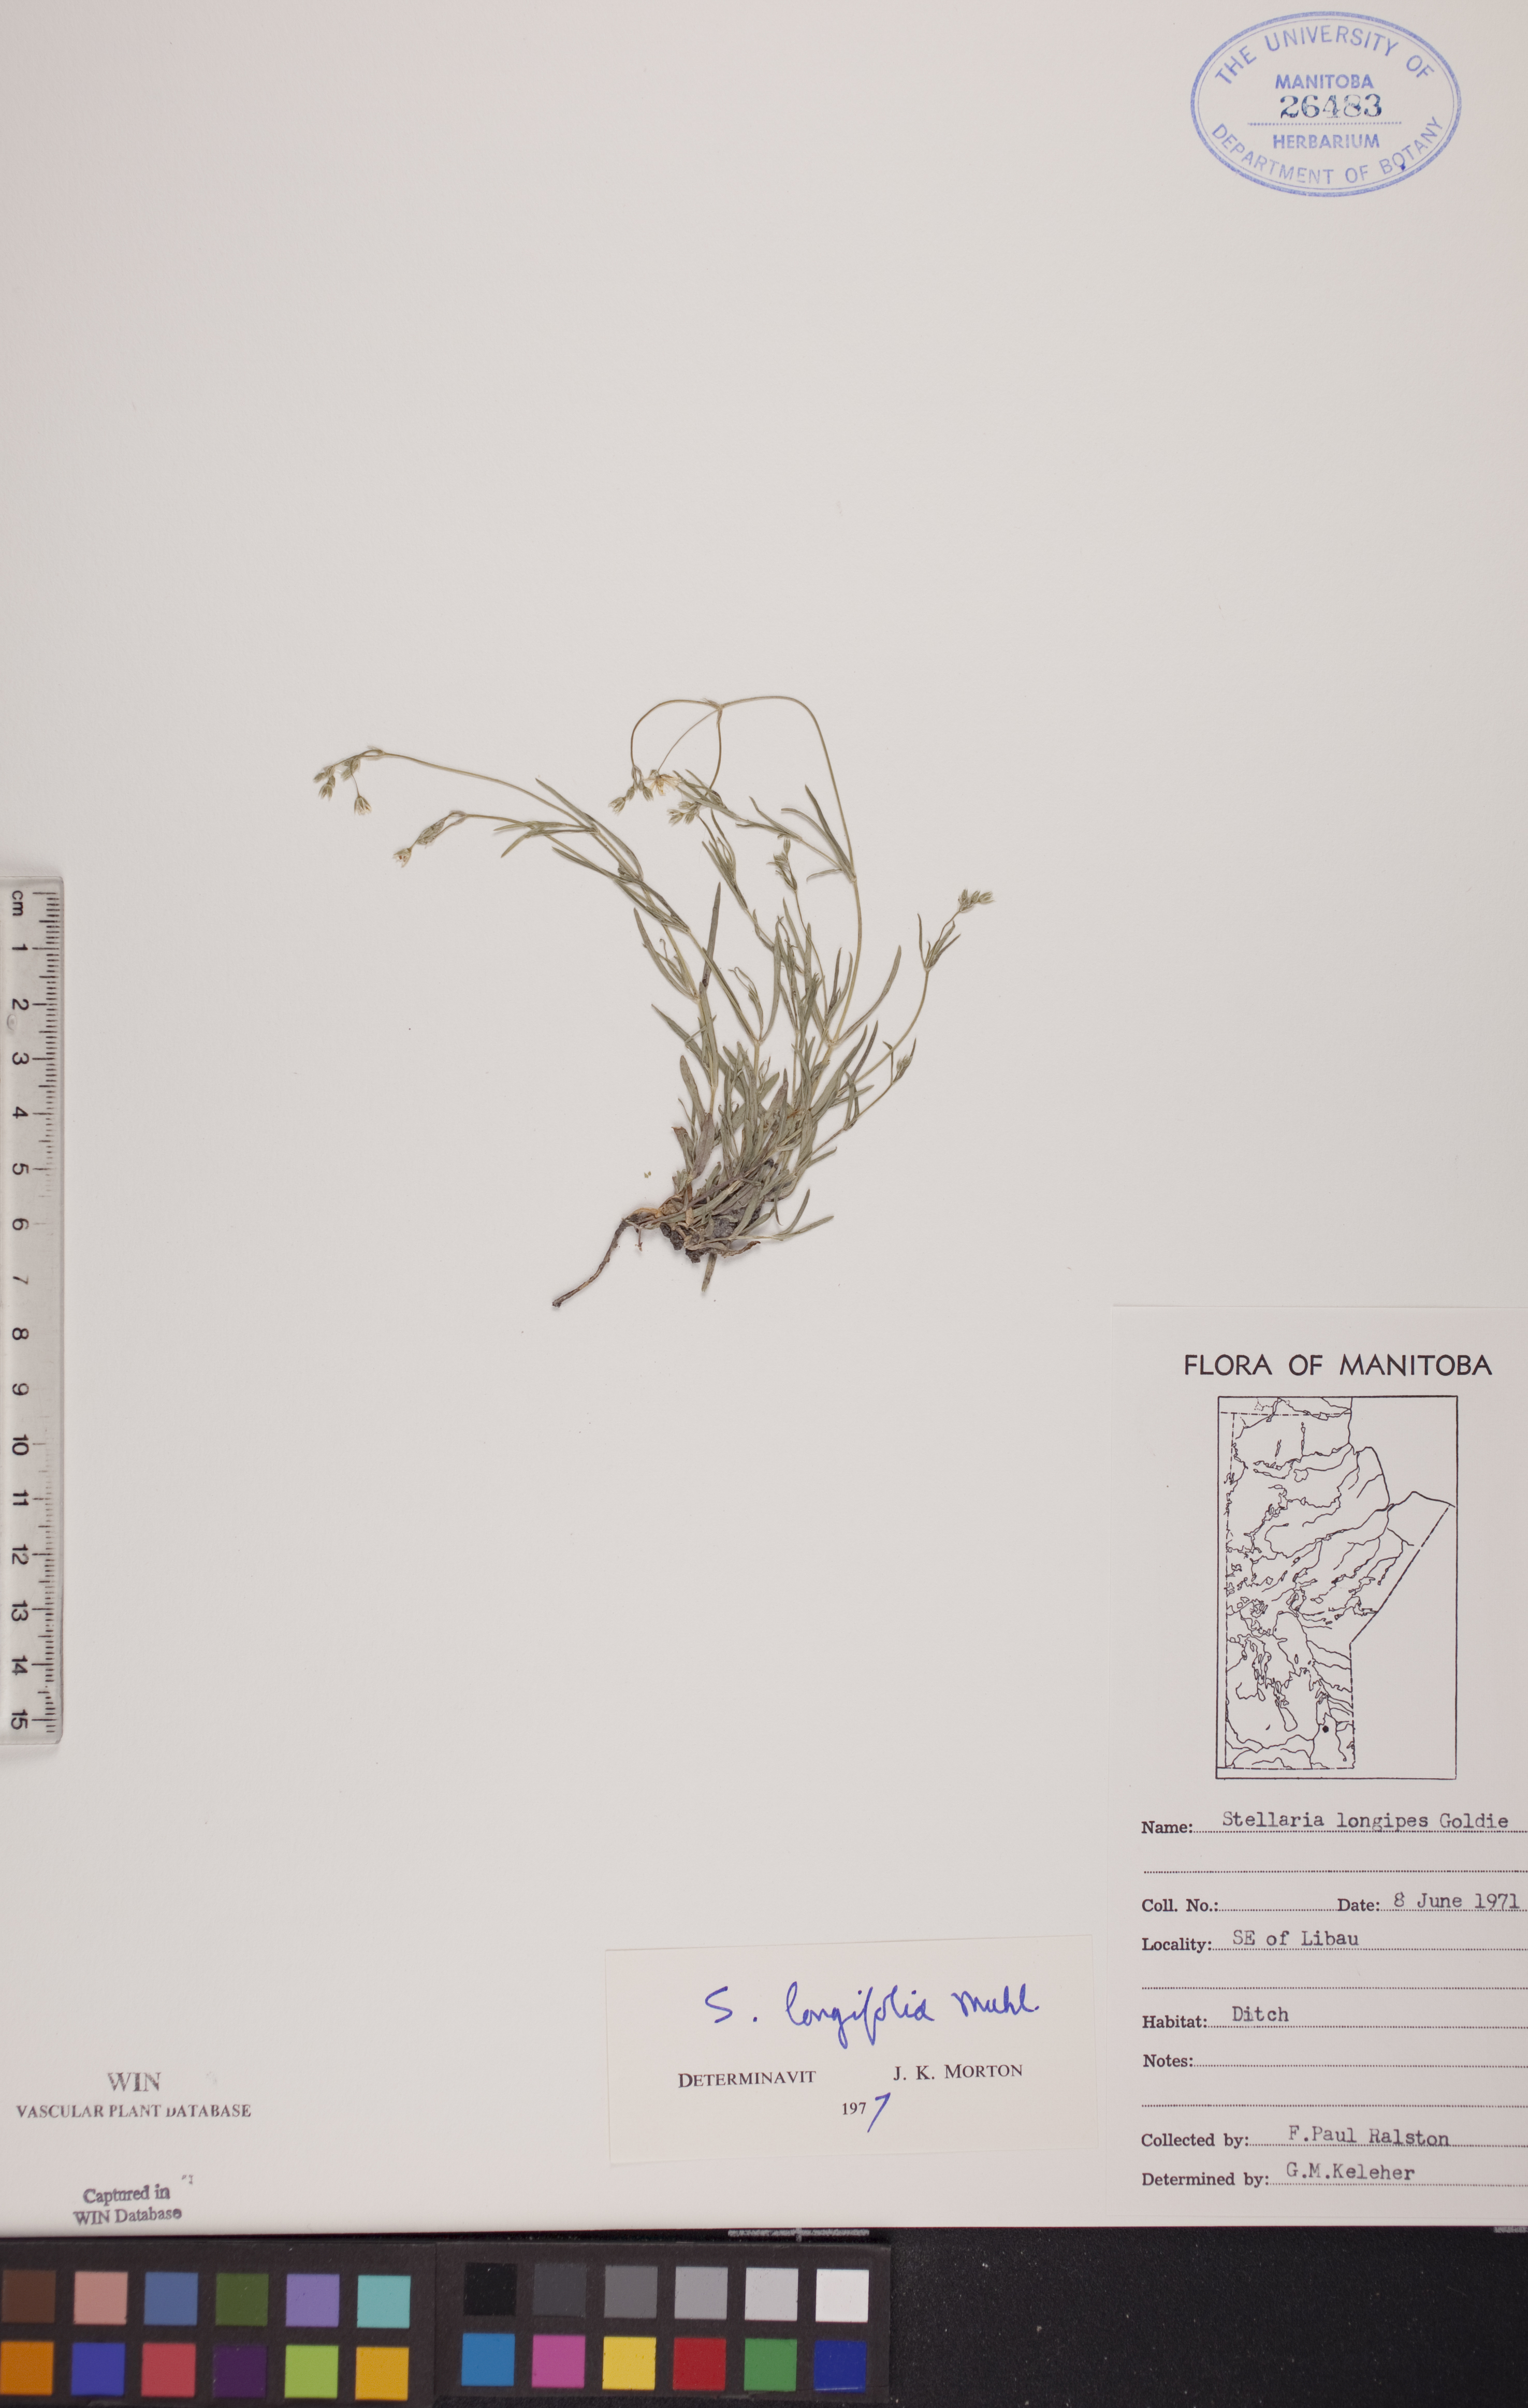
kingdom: Plantae
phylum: Tracheophyta
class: Magnoliopsida
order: Caryophyllales
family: Caryophyllaceae
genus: Stellaria
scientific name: Stellaria longifolia
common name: Long-leaved chickweed
